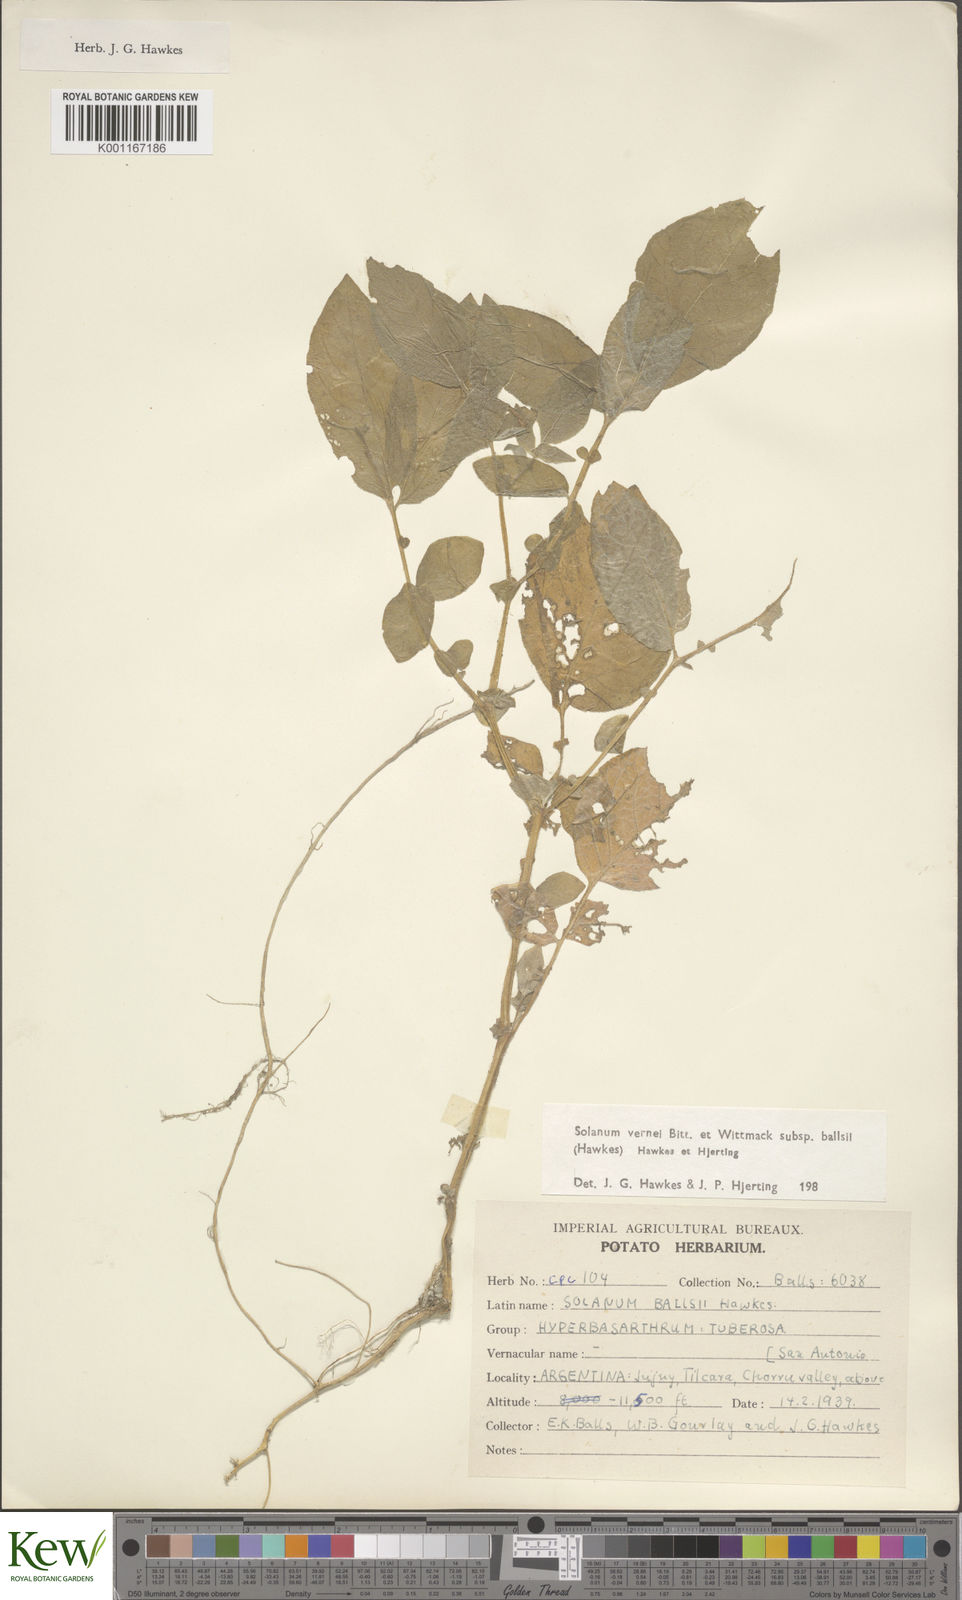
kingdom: Plantae
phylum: Tracheophyta
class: Magnoliopsida
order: Solanales
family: Solanaceae
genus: Solanum
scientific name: Solanum vernei
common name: Purple potato
